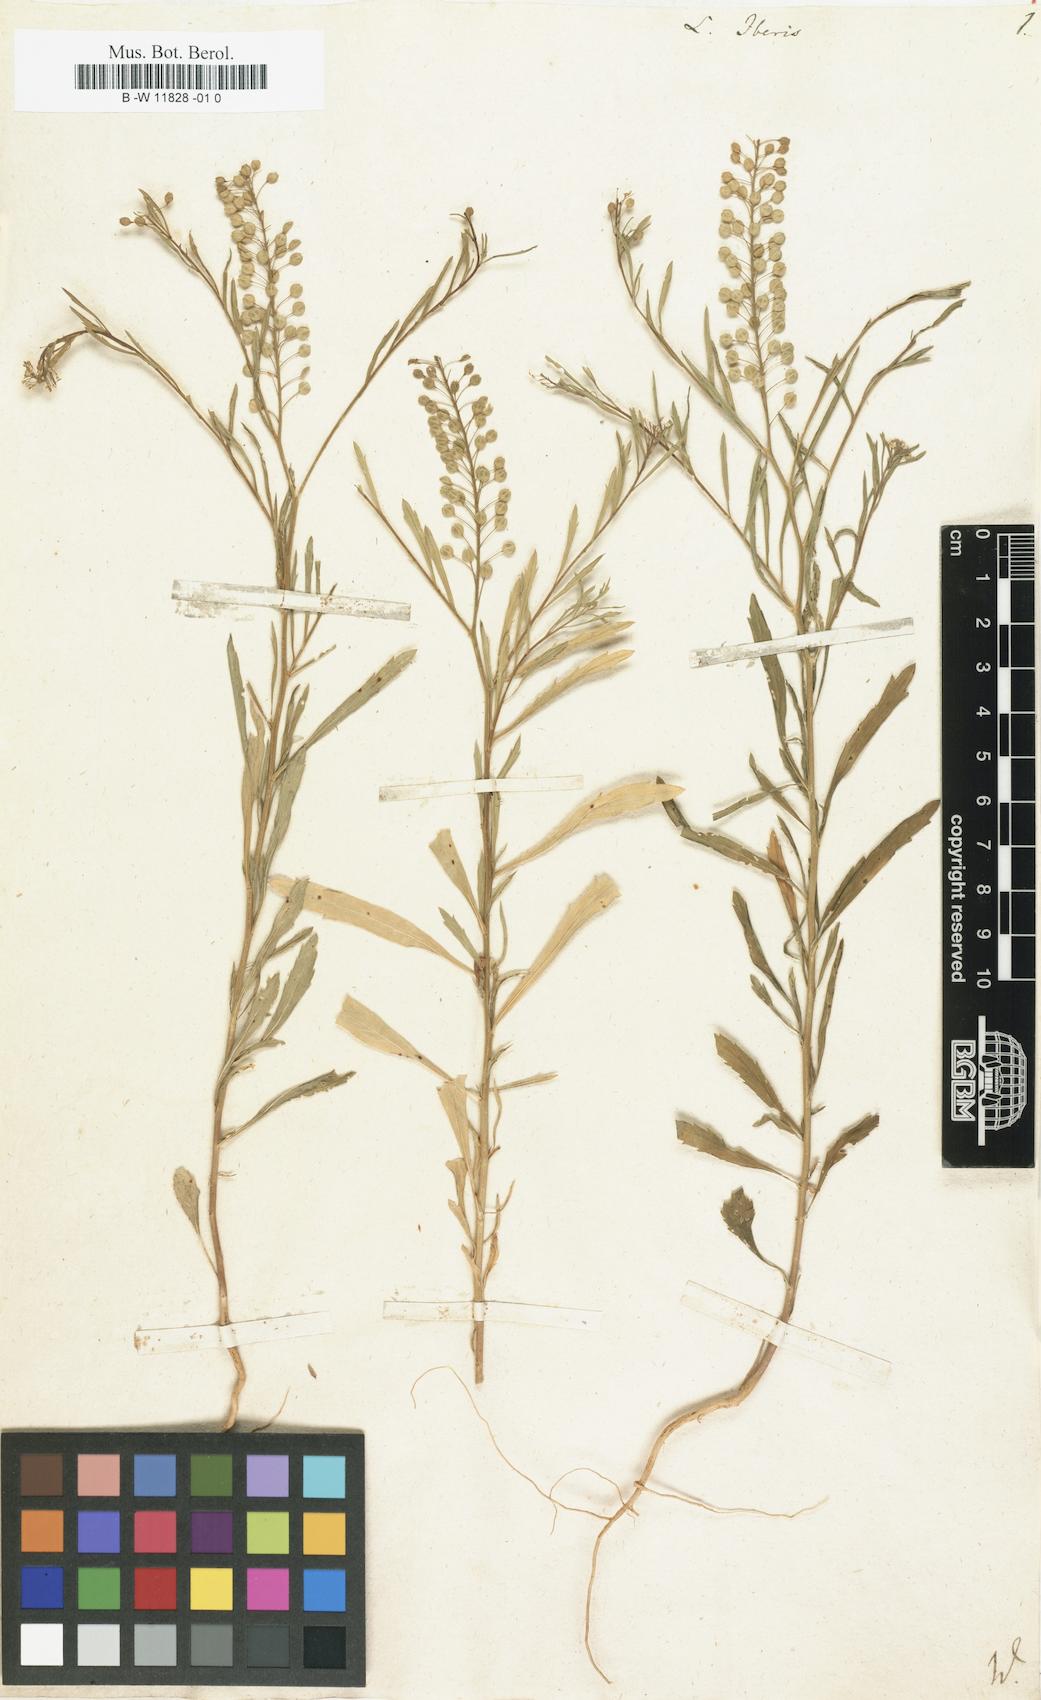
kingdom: Plantae
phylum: Tracheophyta
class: Magnoliopsida
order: Brassicales
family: Brassicaceae
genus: Lepidium
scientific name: Lepidium graminifolium
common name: Tall pepperwort
